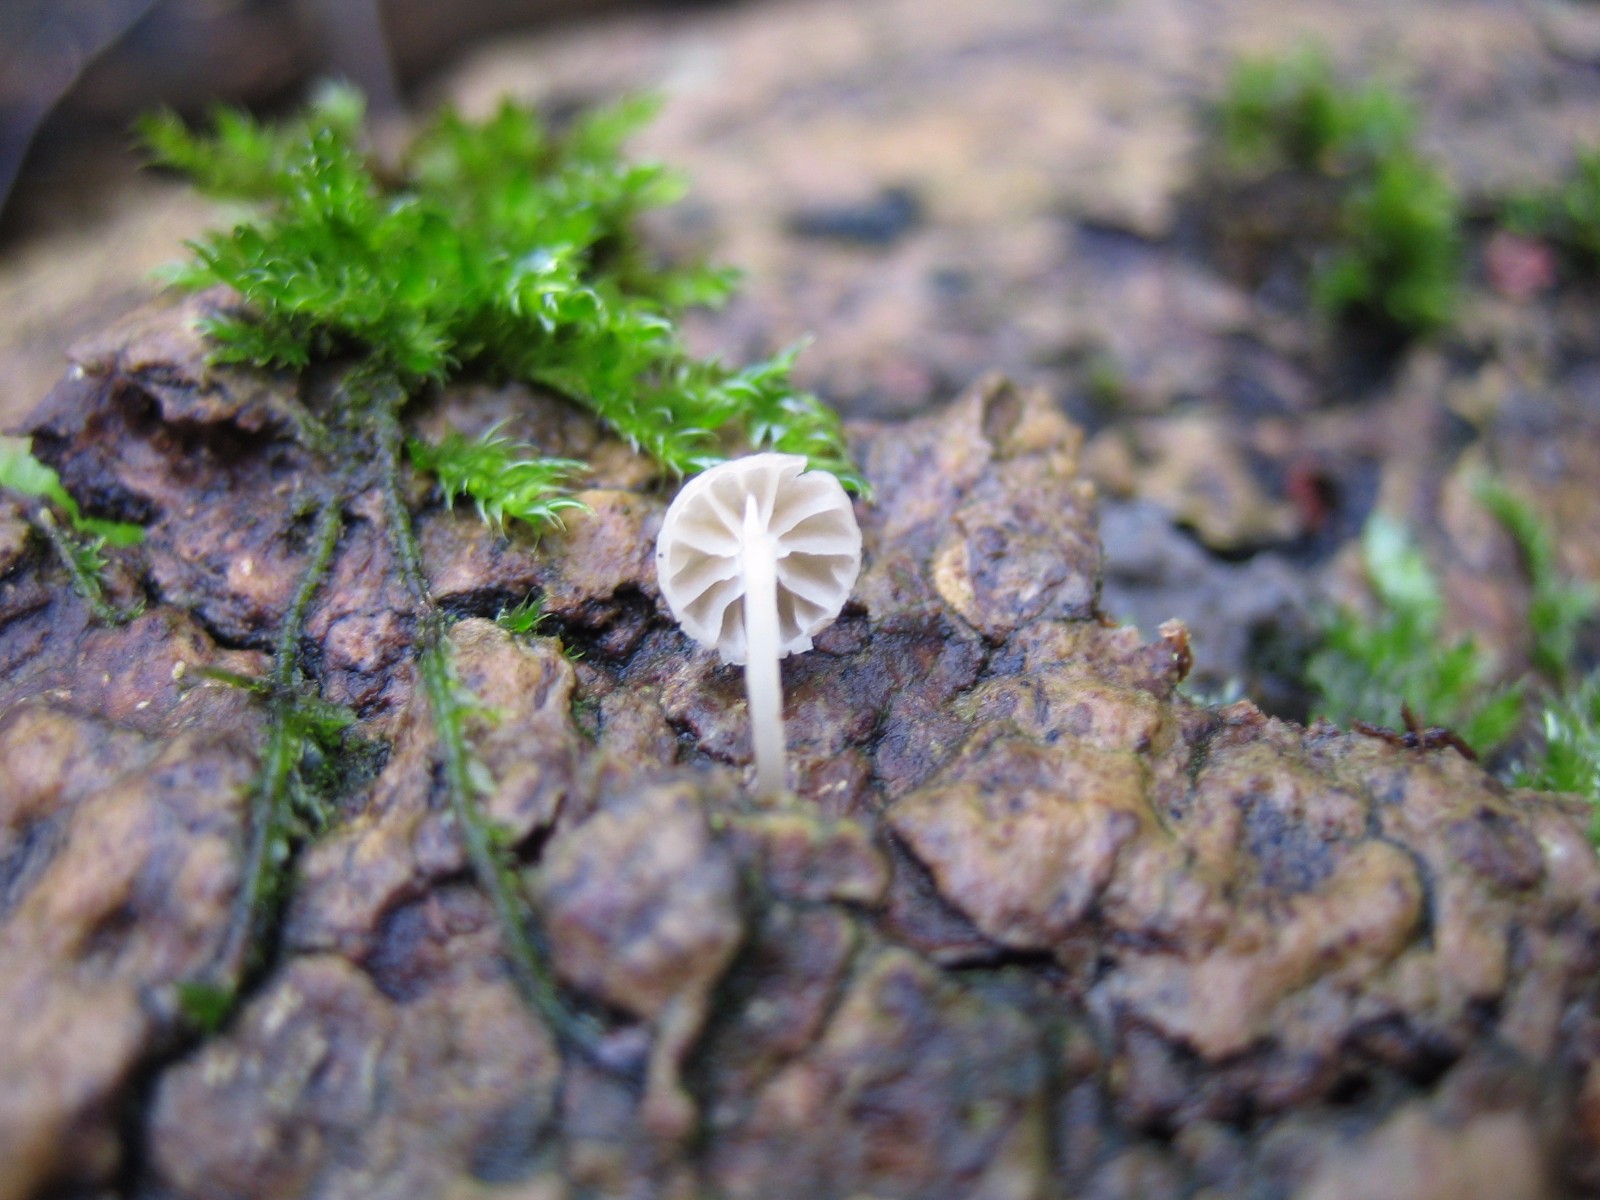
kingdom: Fungi
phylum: Basidiomycota
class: Agaricomycetes
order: Agaricales
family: Porotheleaceae
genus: Phloeomana
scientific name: Phloeomana speirea
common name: kvist-huesvamp
